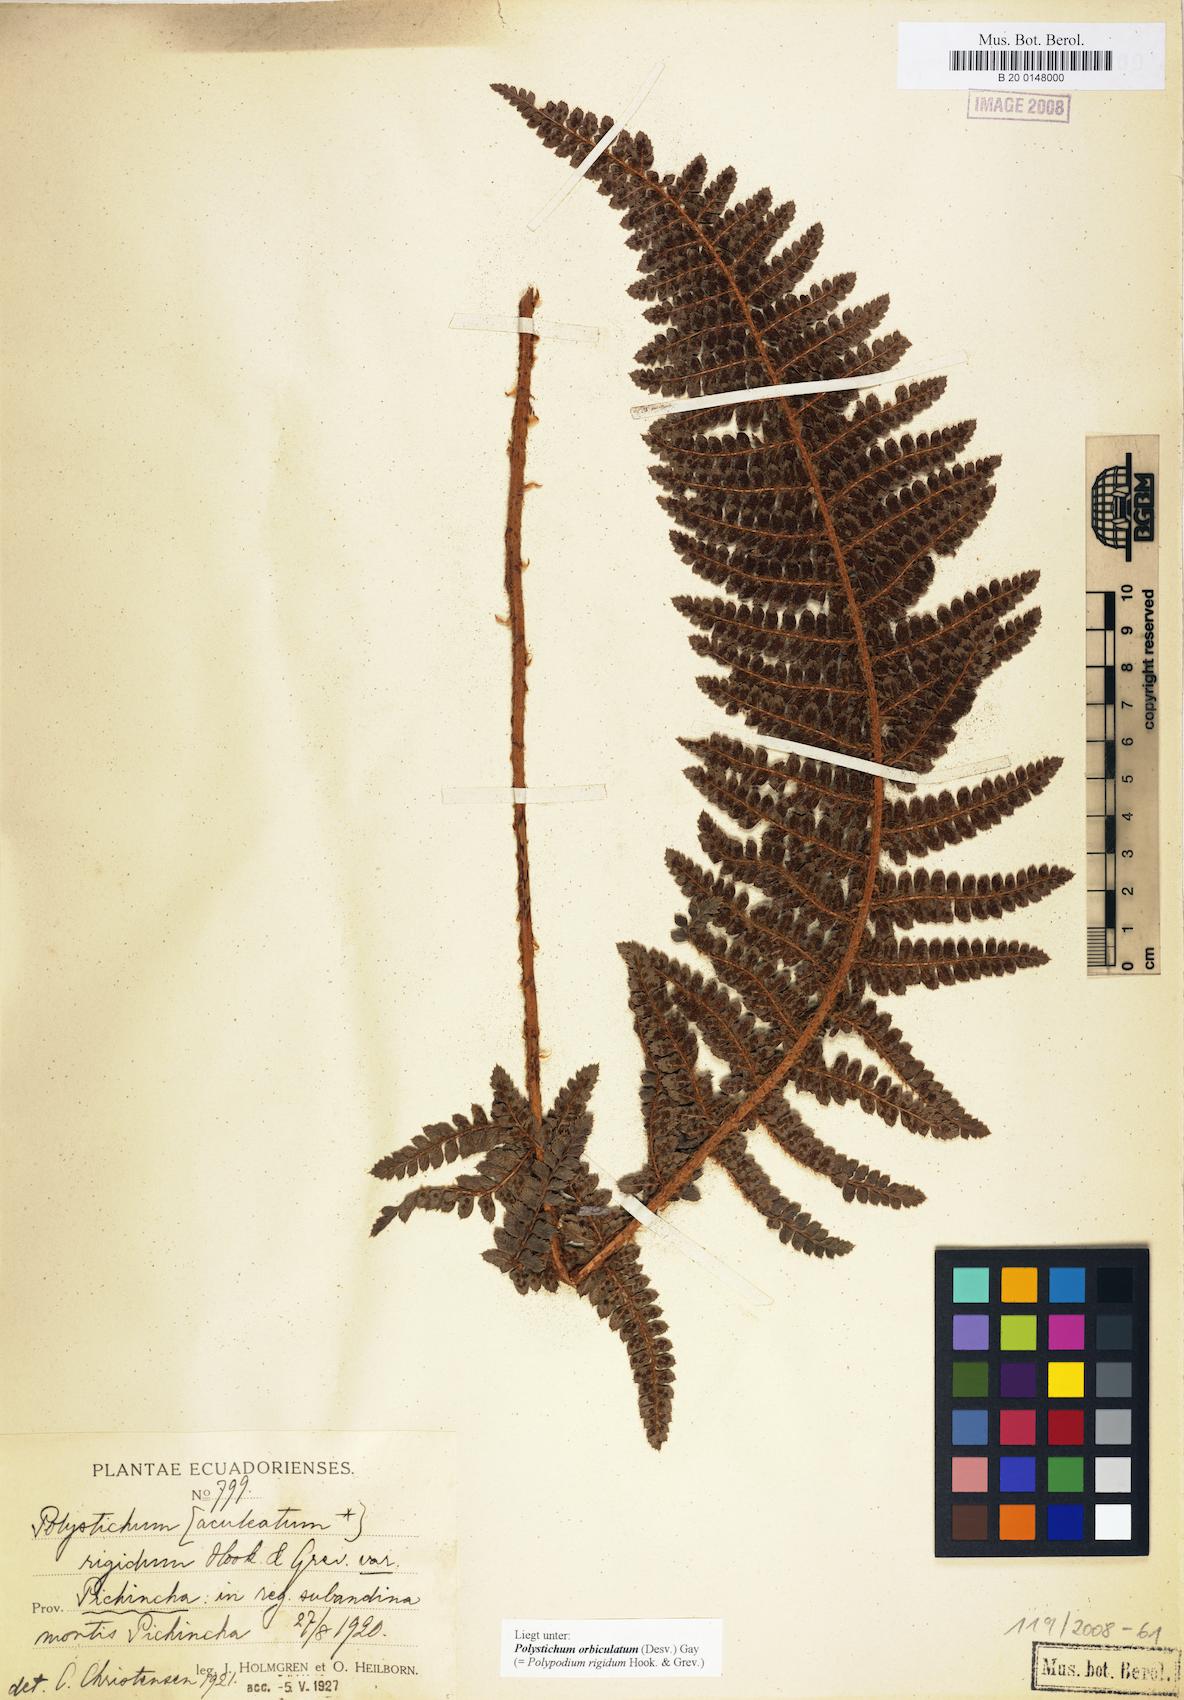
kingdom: Plantae
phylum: Tracheophyta
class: Polypodiopsida
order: Polypodiales
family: Dryopteridaceae
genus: Polystichum
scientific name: Polystichum orbiculatum
